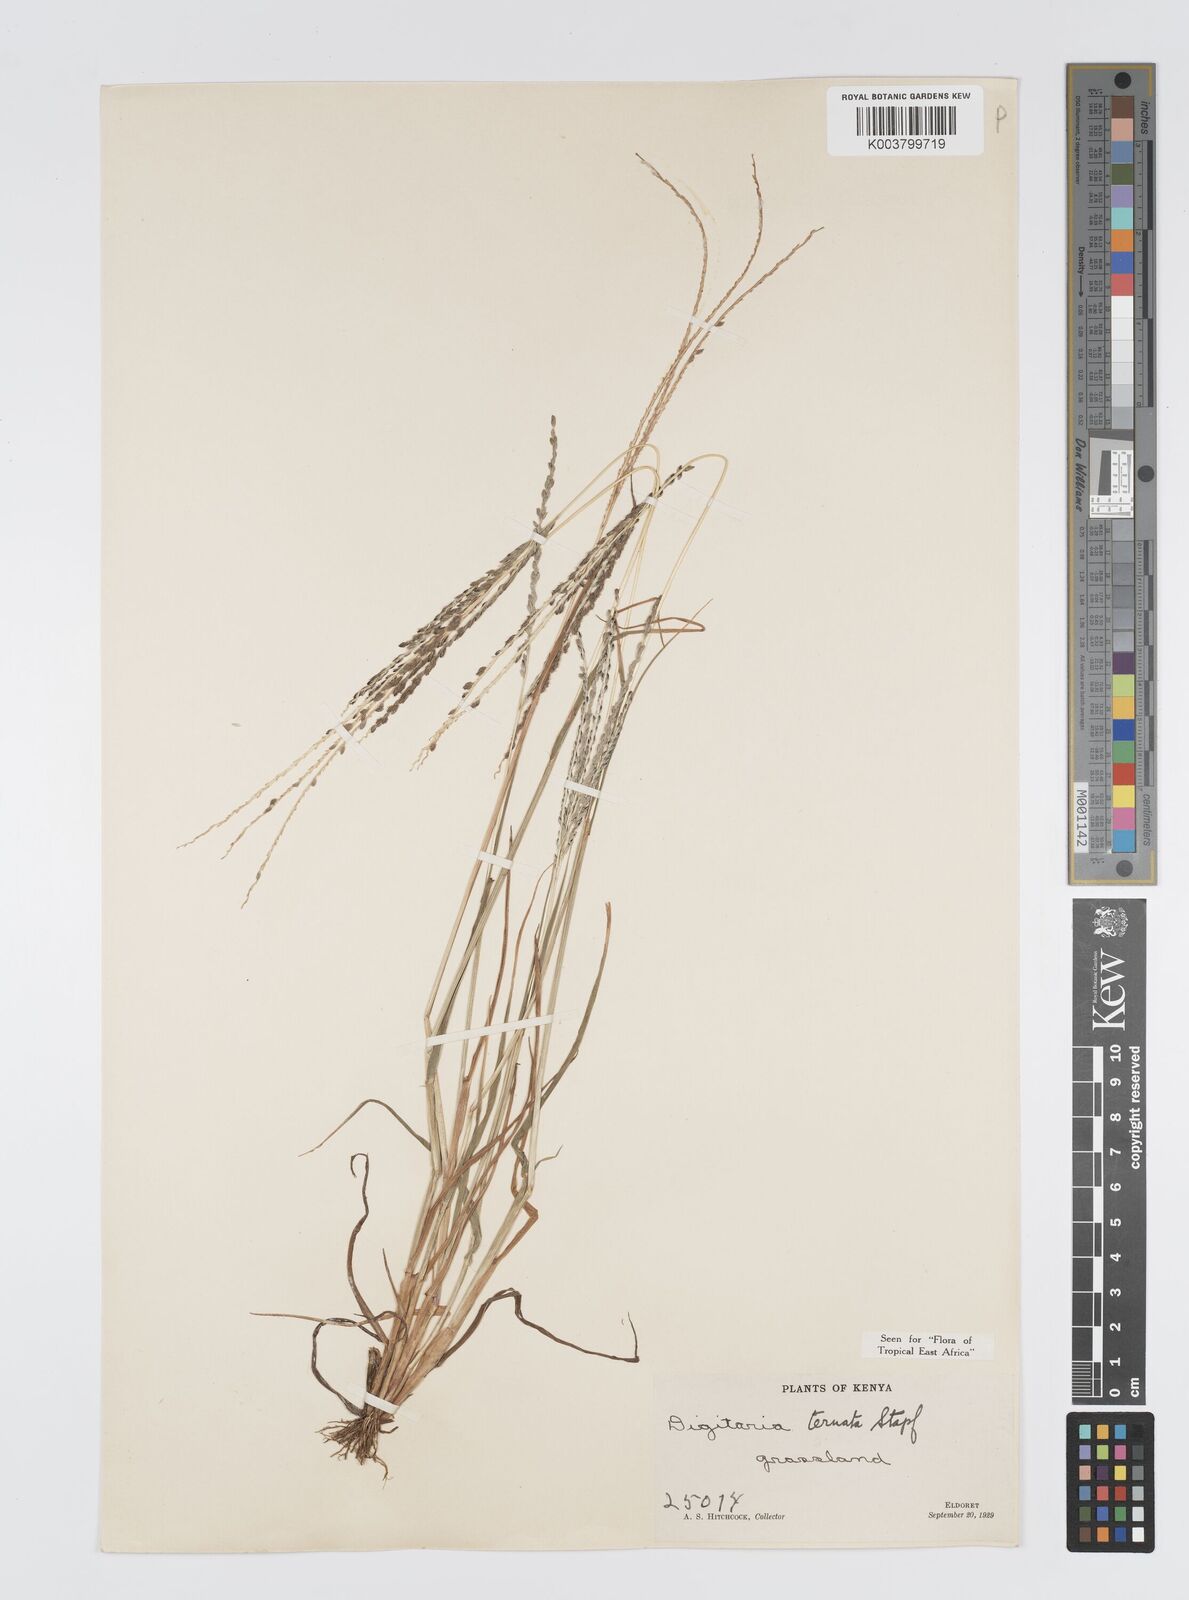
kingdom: Plantae
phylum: Tracheophyta
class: Liliopsida
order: Poales
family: Poaceae
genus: Digitaria
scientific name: Digitaria ternata
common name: Blackseed crabgrass
